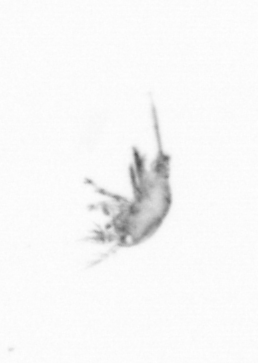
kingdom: Animalia
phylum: Arthropoda
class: Copepoda
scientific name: Copepoda
